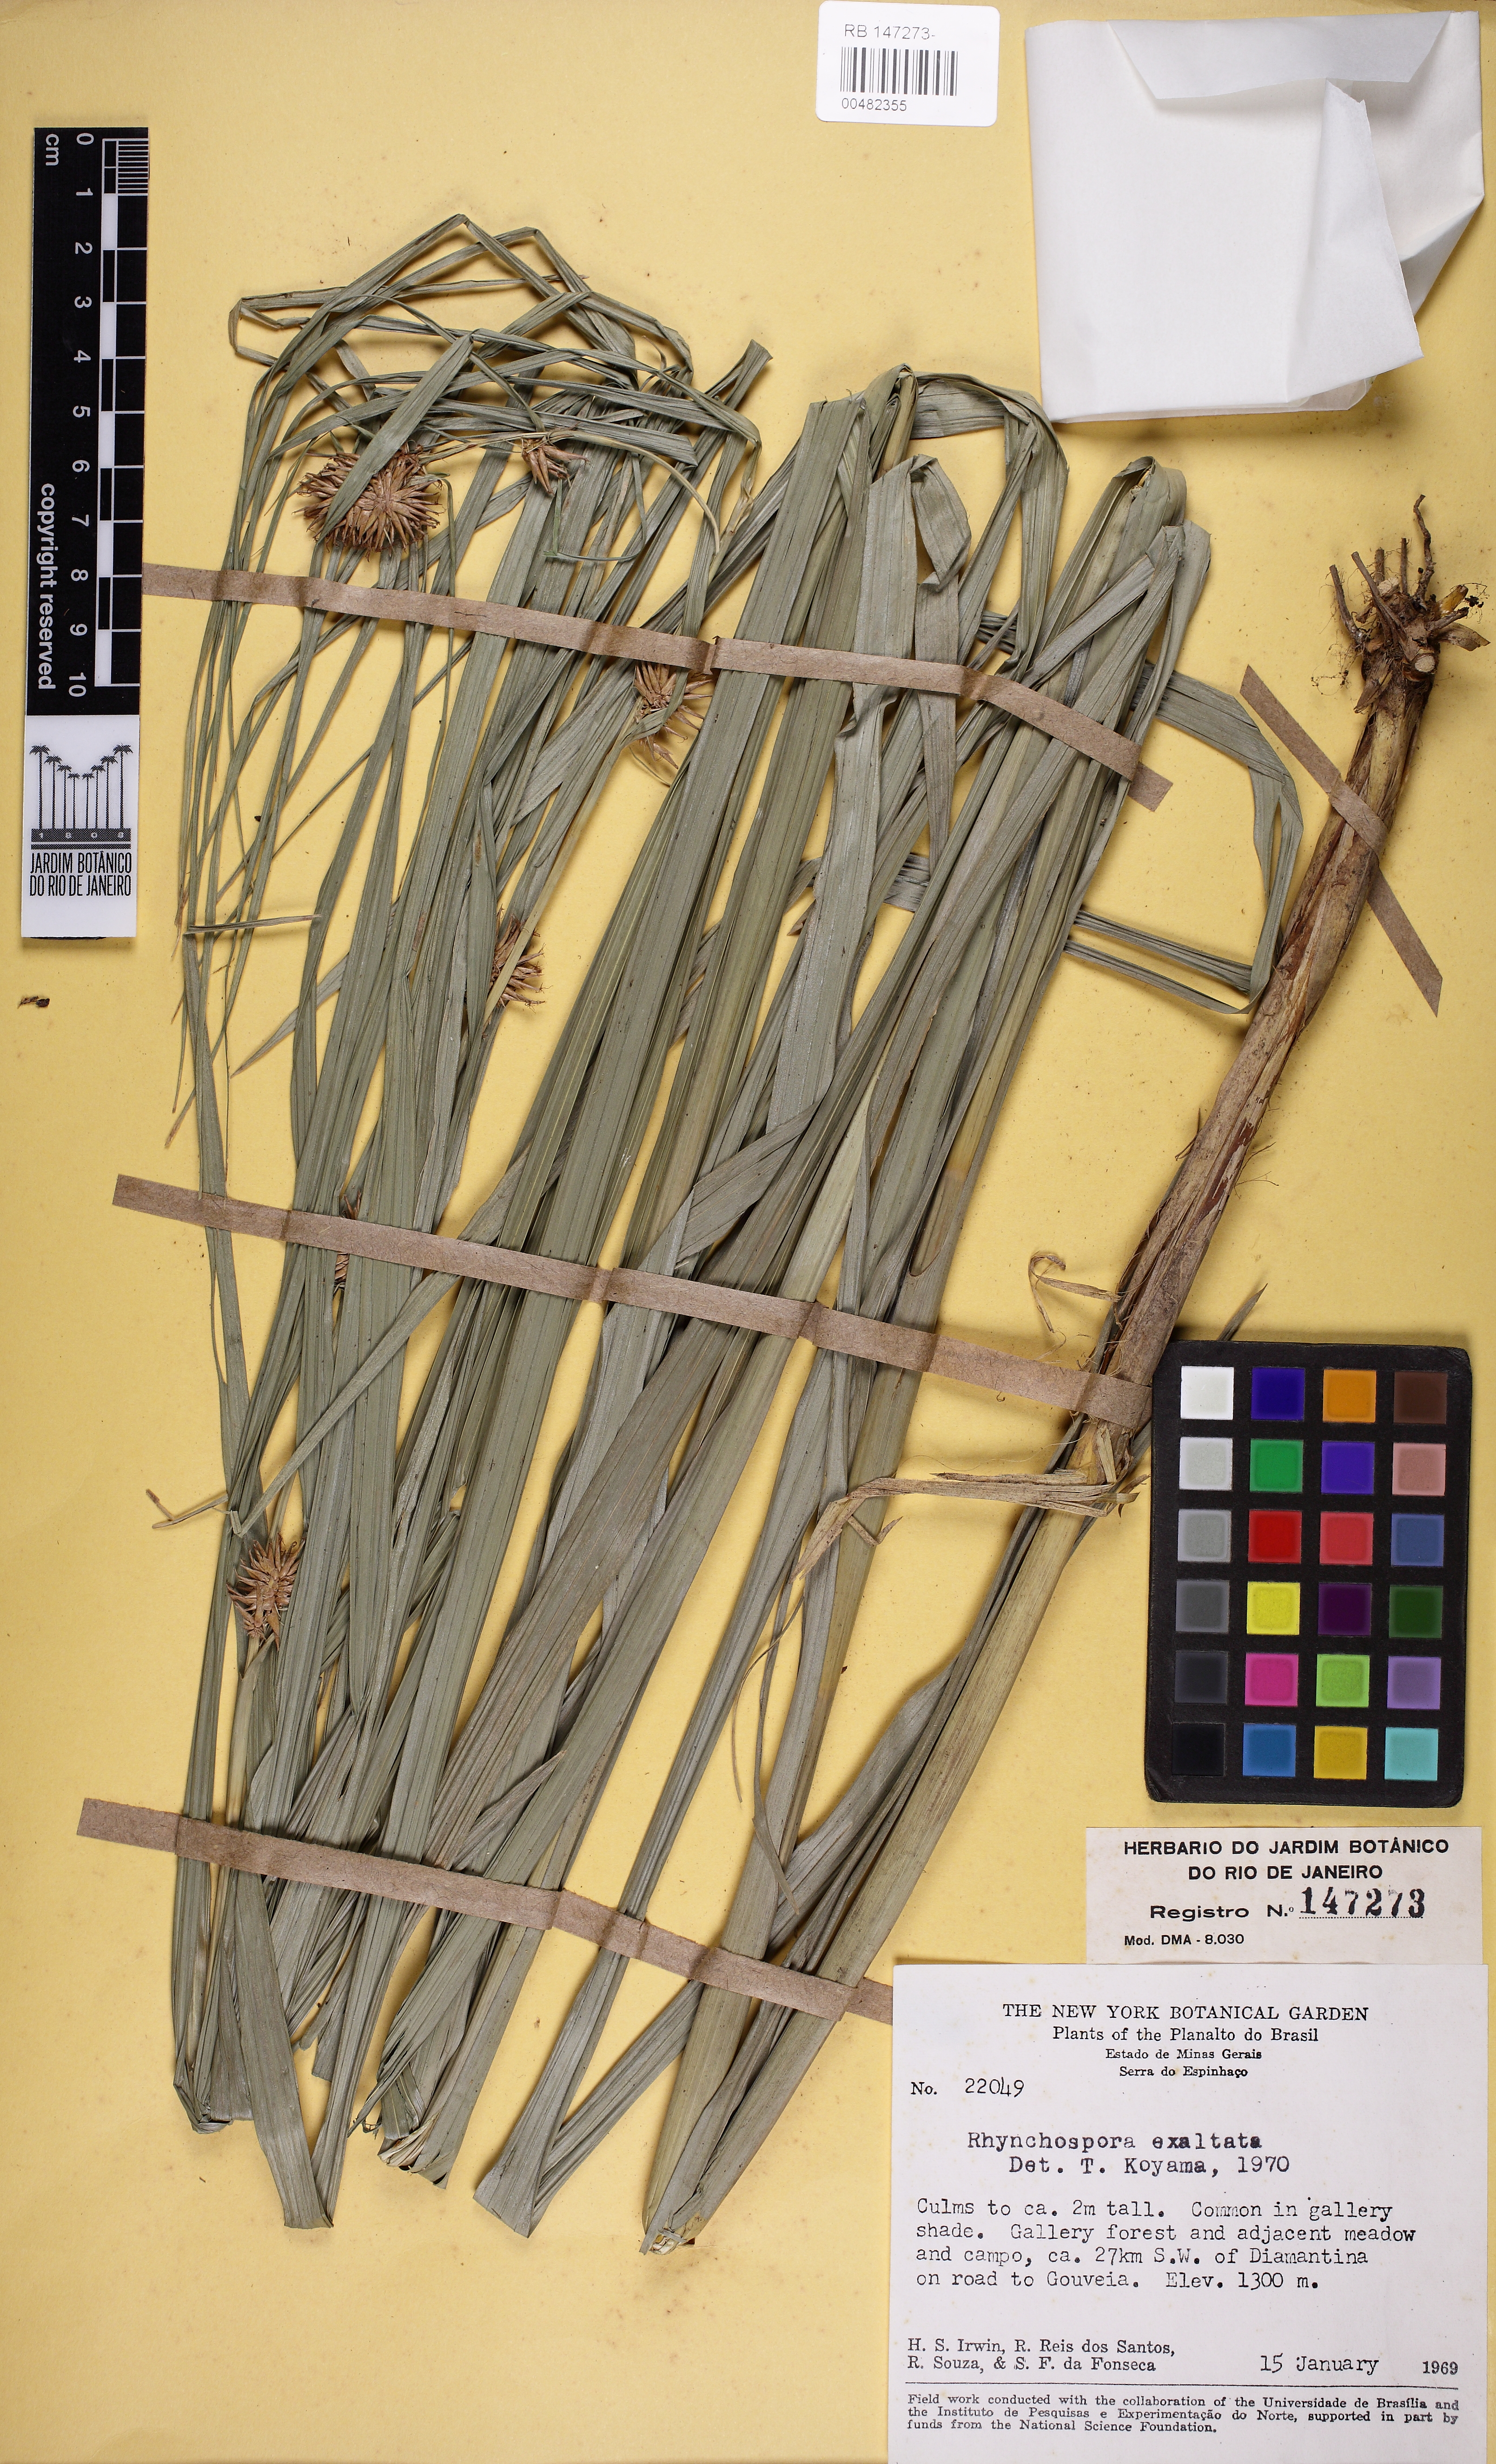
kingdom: Plantae
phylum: Tracheophyta
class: Liliopsida
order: Poales
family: Cyperaceae
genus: Rhynchospora
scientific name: Rhynchospora exaltata
